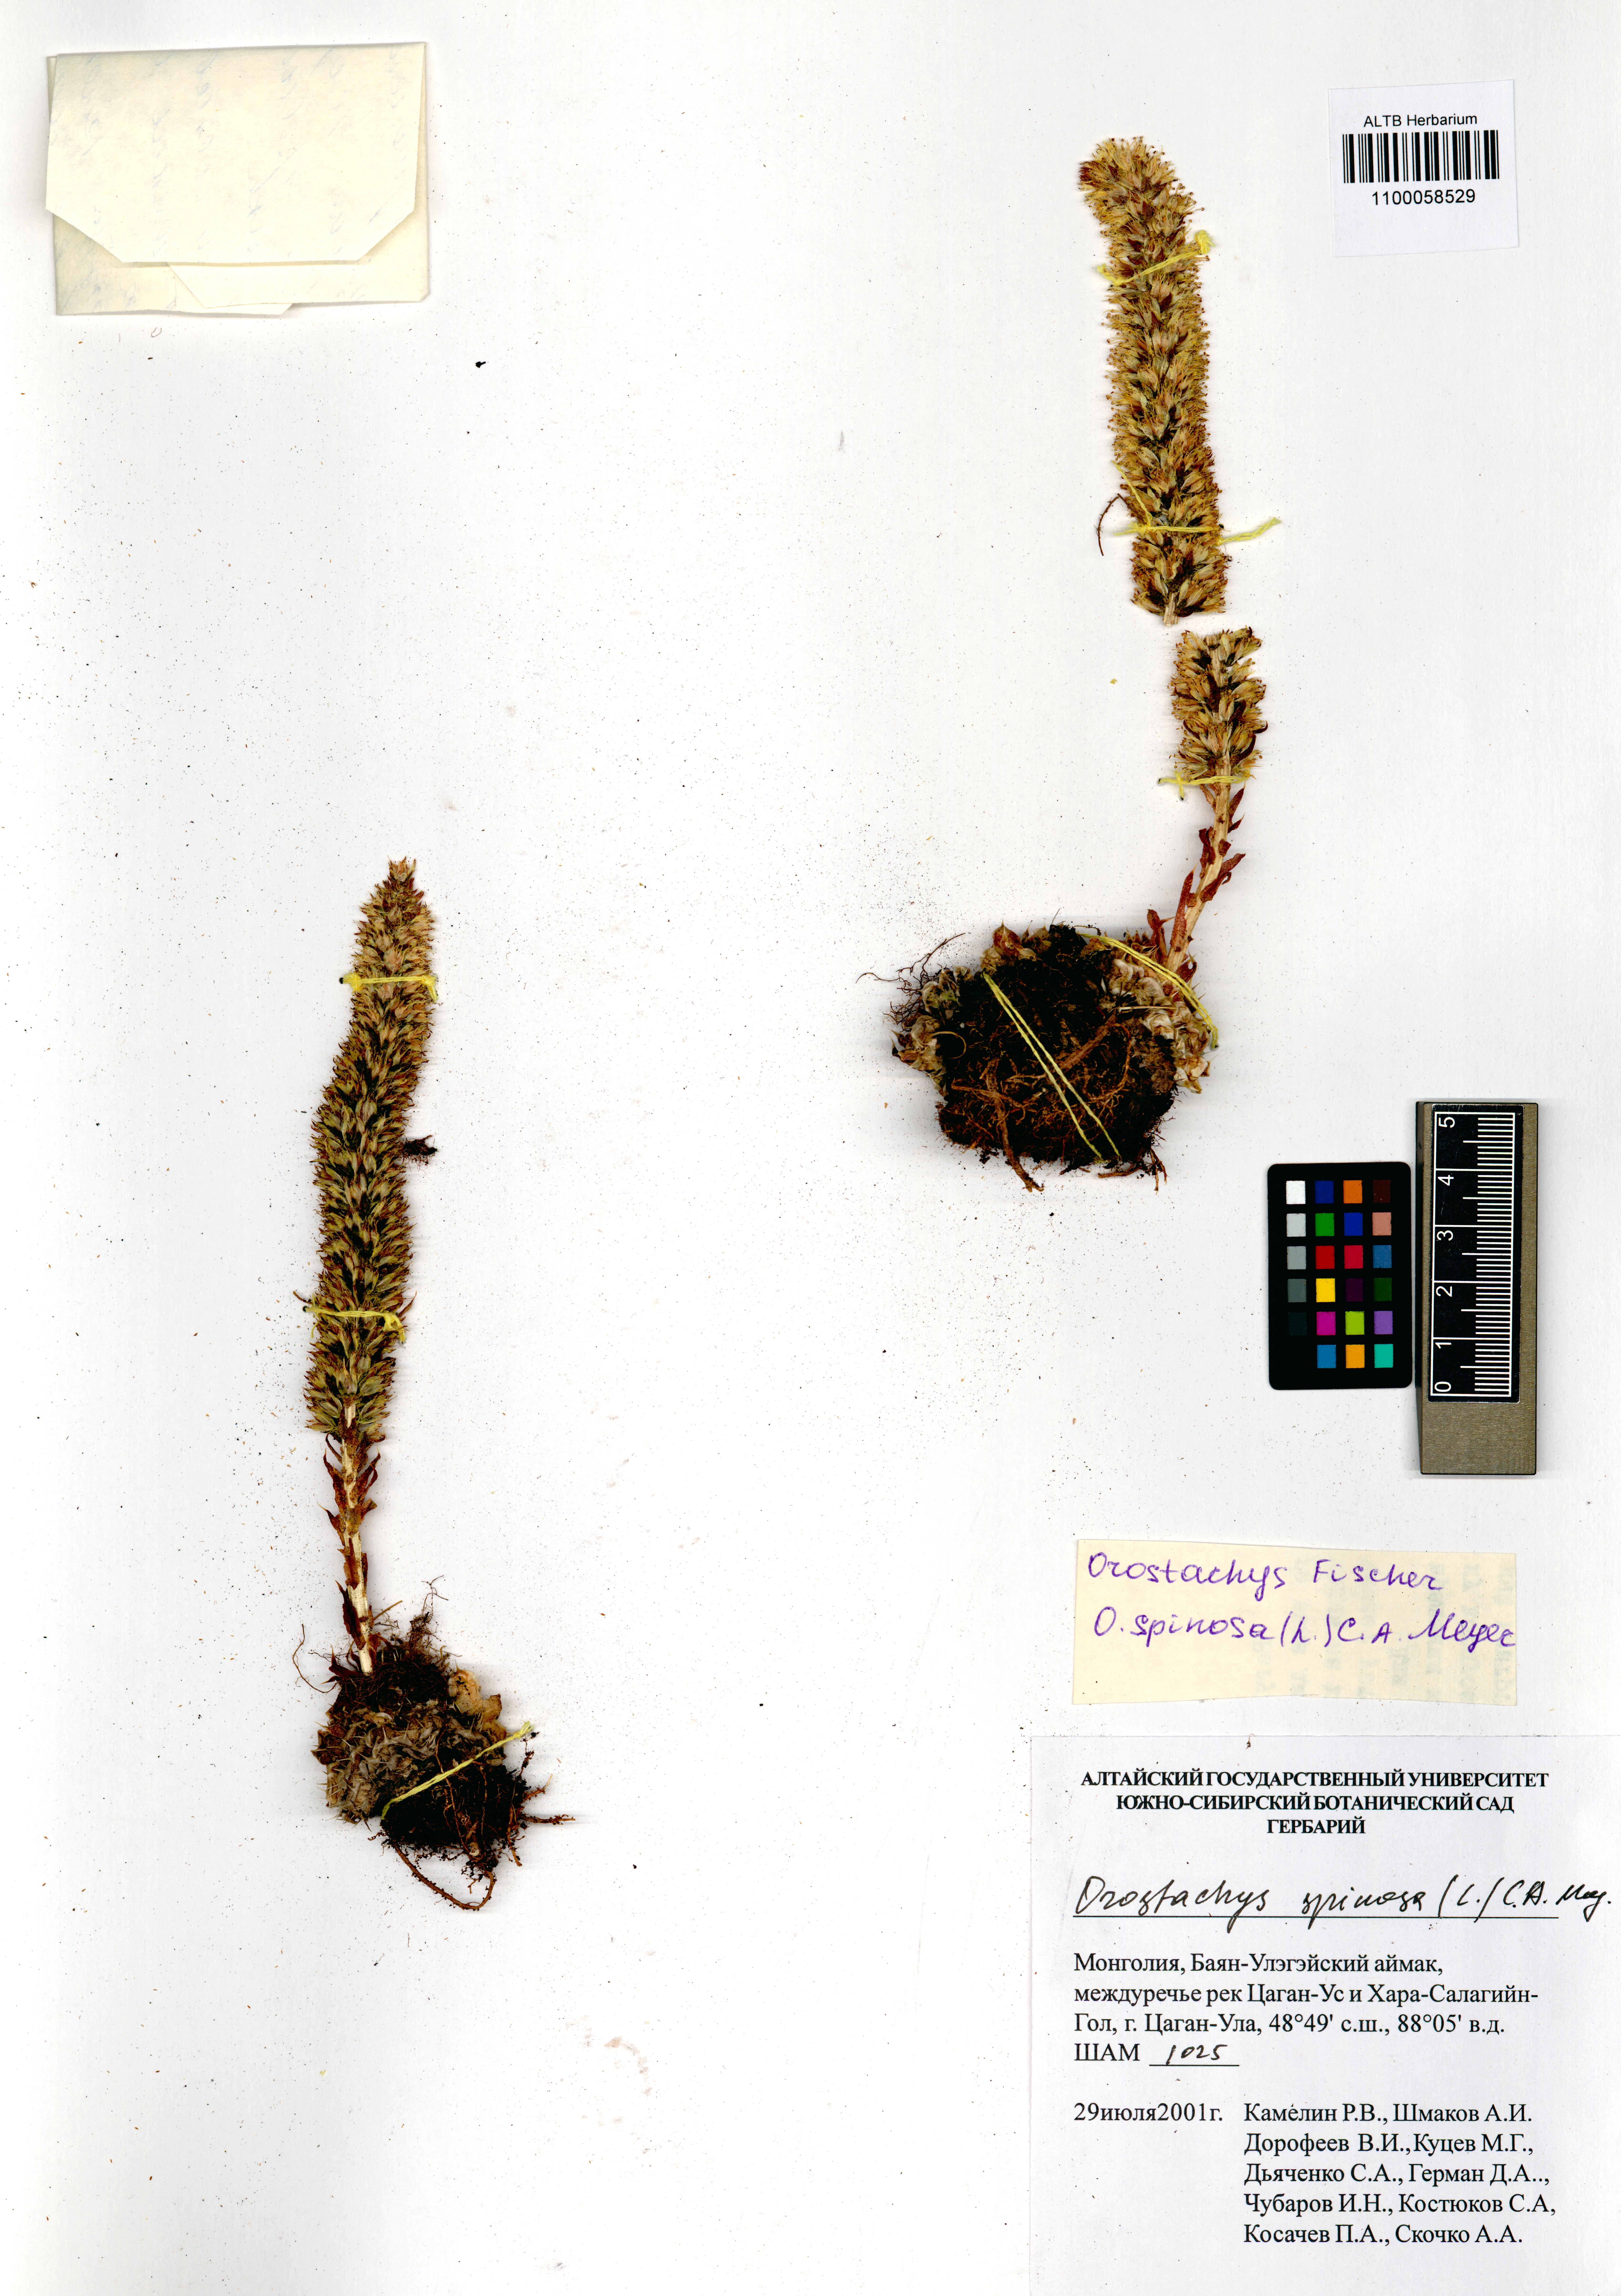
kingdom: Plantae
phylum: Tracheophyta
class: Magnoliopsida
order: Saxifragales
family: Crassulaceae
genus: Orostachys
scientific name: Orostachys spinosa
